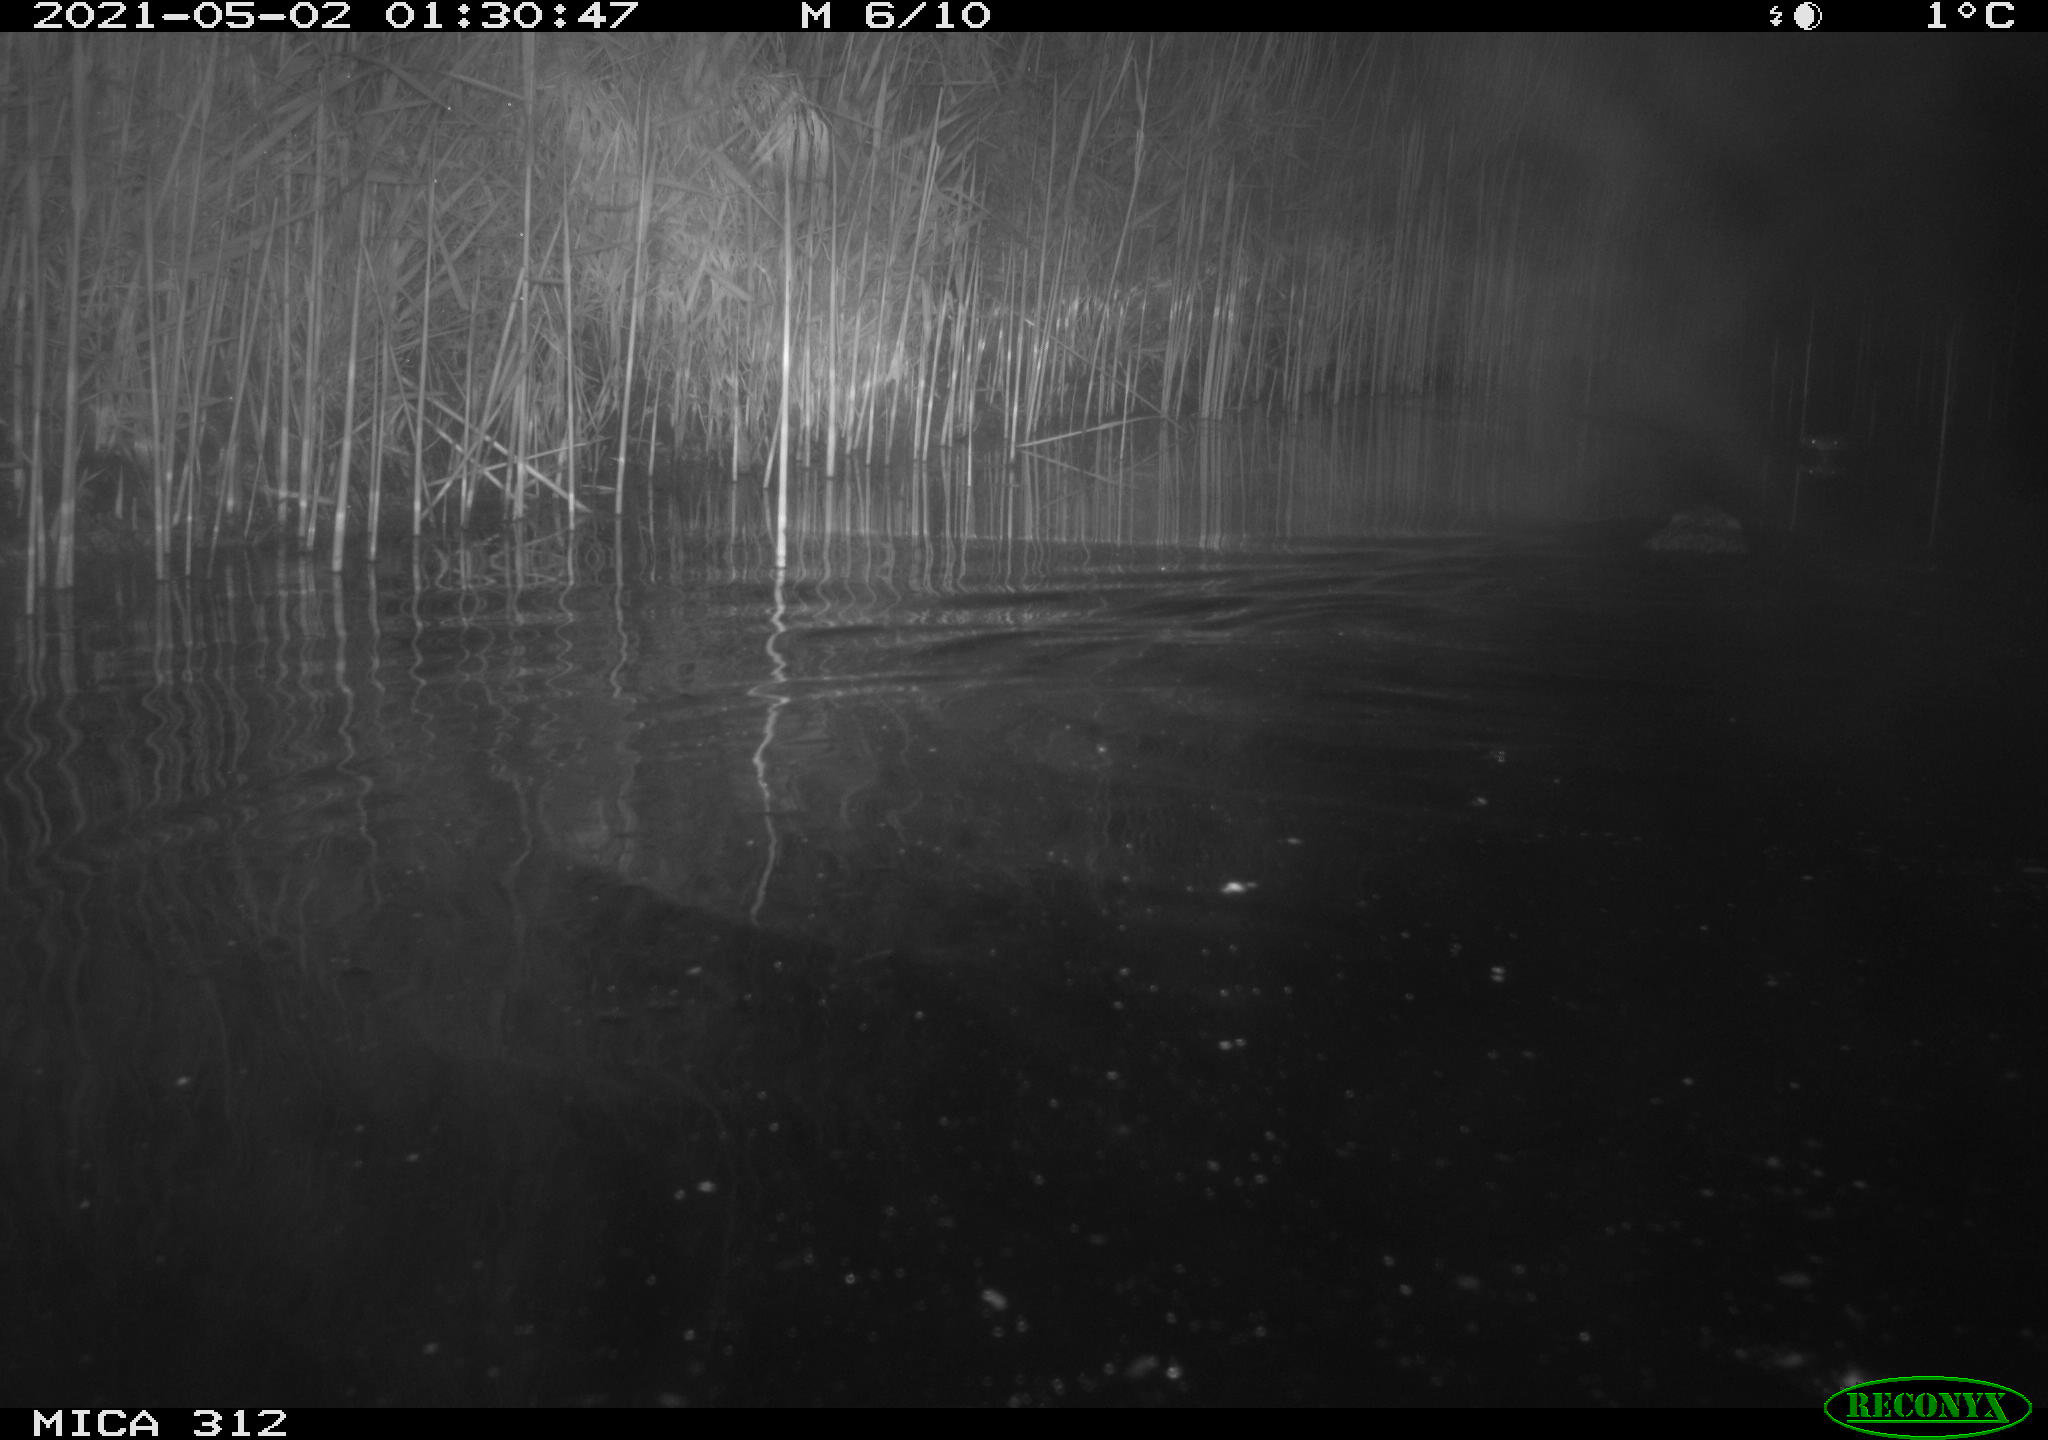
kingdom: Animalia
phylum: Chordata
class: Mammalia
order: Rodentia
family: Cricetidae
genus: Ondatra
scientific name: Ondatra zibethicus
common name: Muskrat
